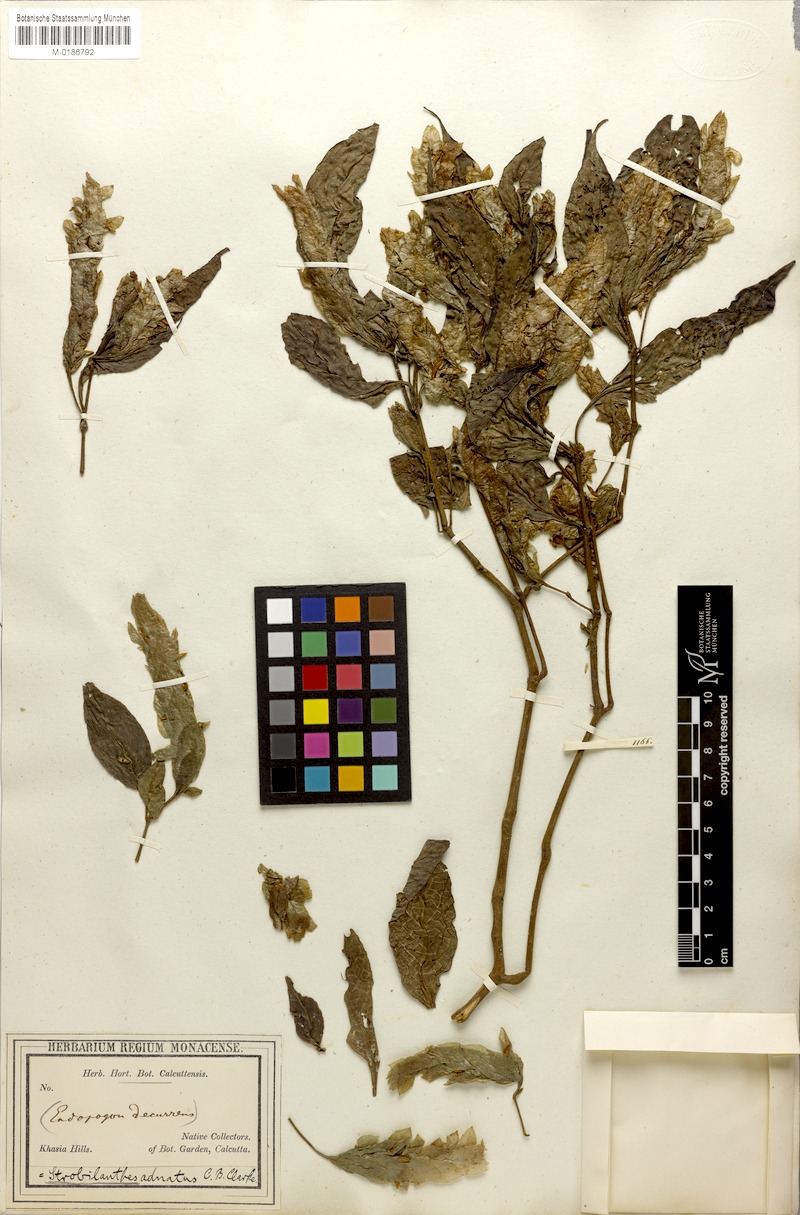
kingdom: Plantae
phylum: Tracheophyta
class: Magnoliopsida
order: Lamiales
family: Acanthaceae
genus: Strobilanthes
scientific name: Strobilanthes adnata
